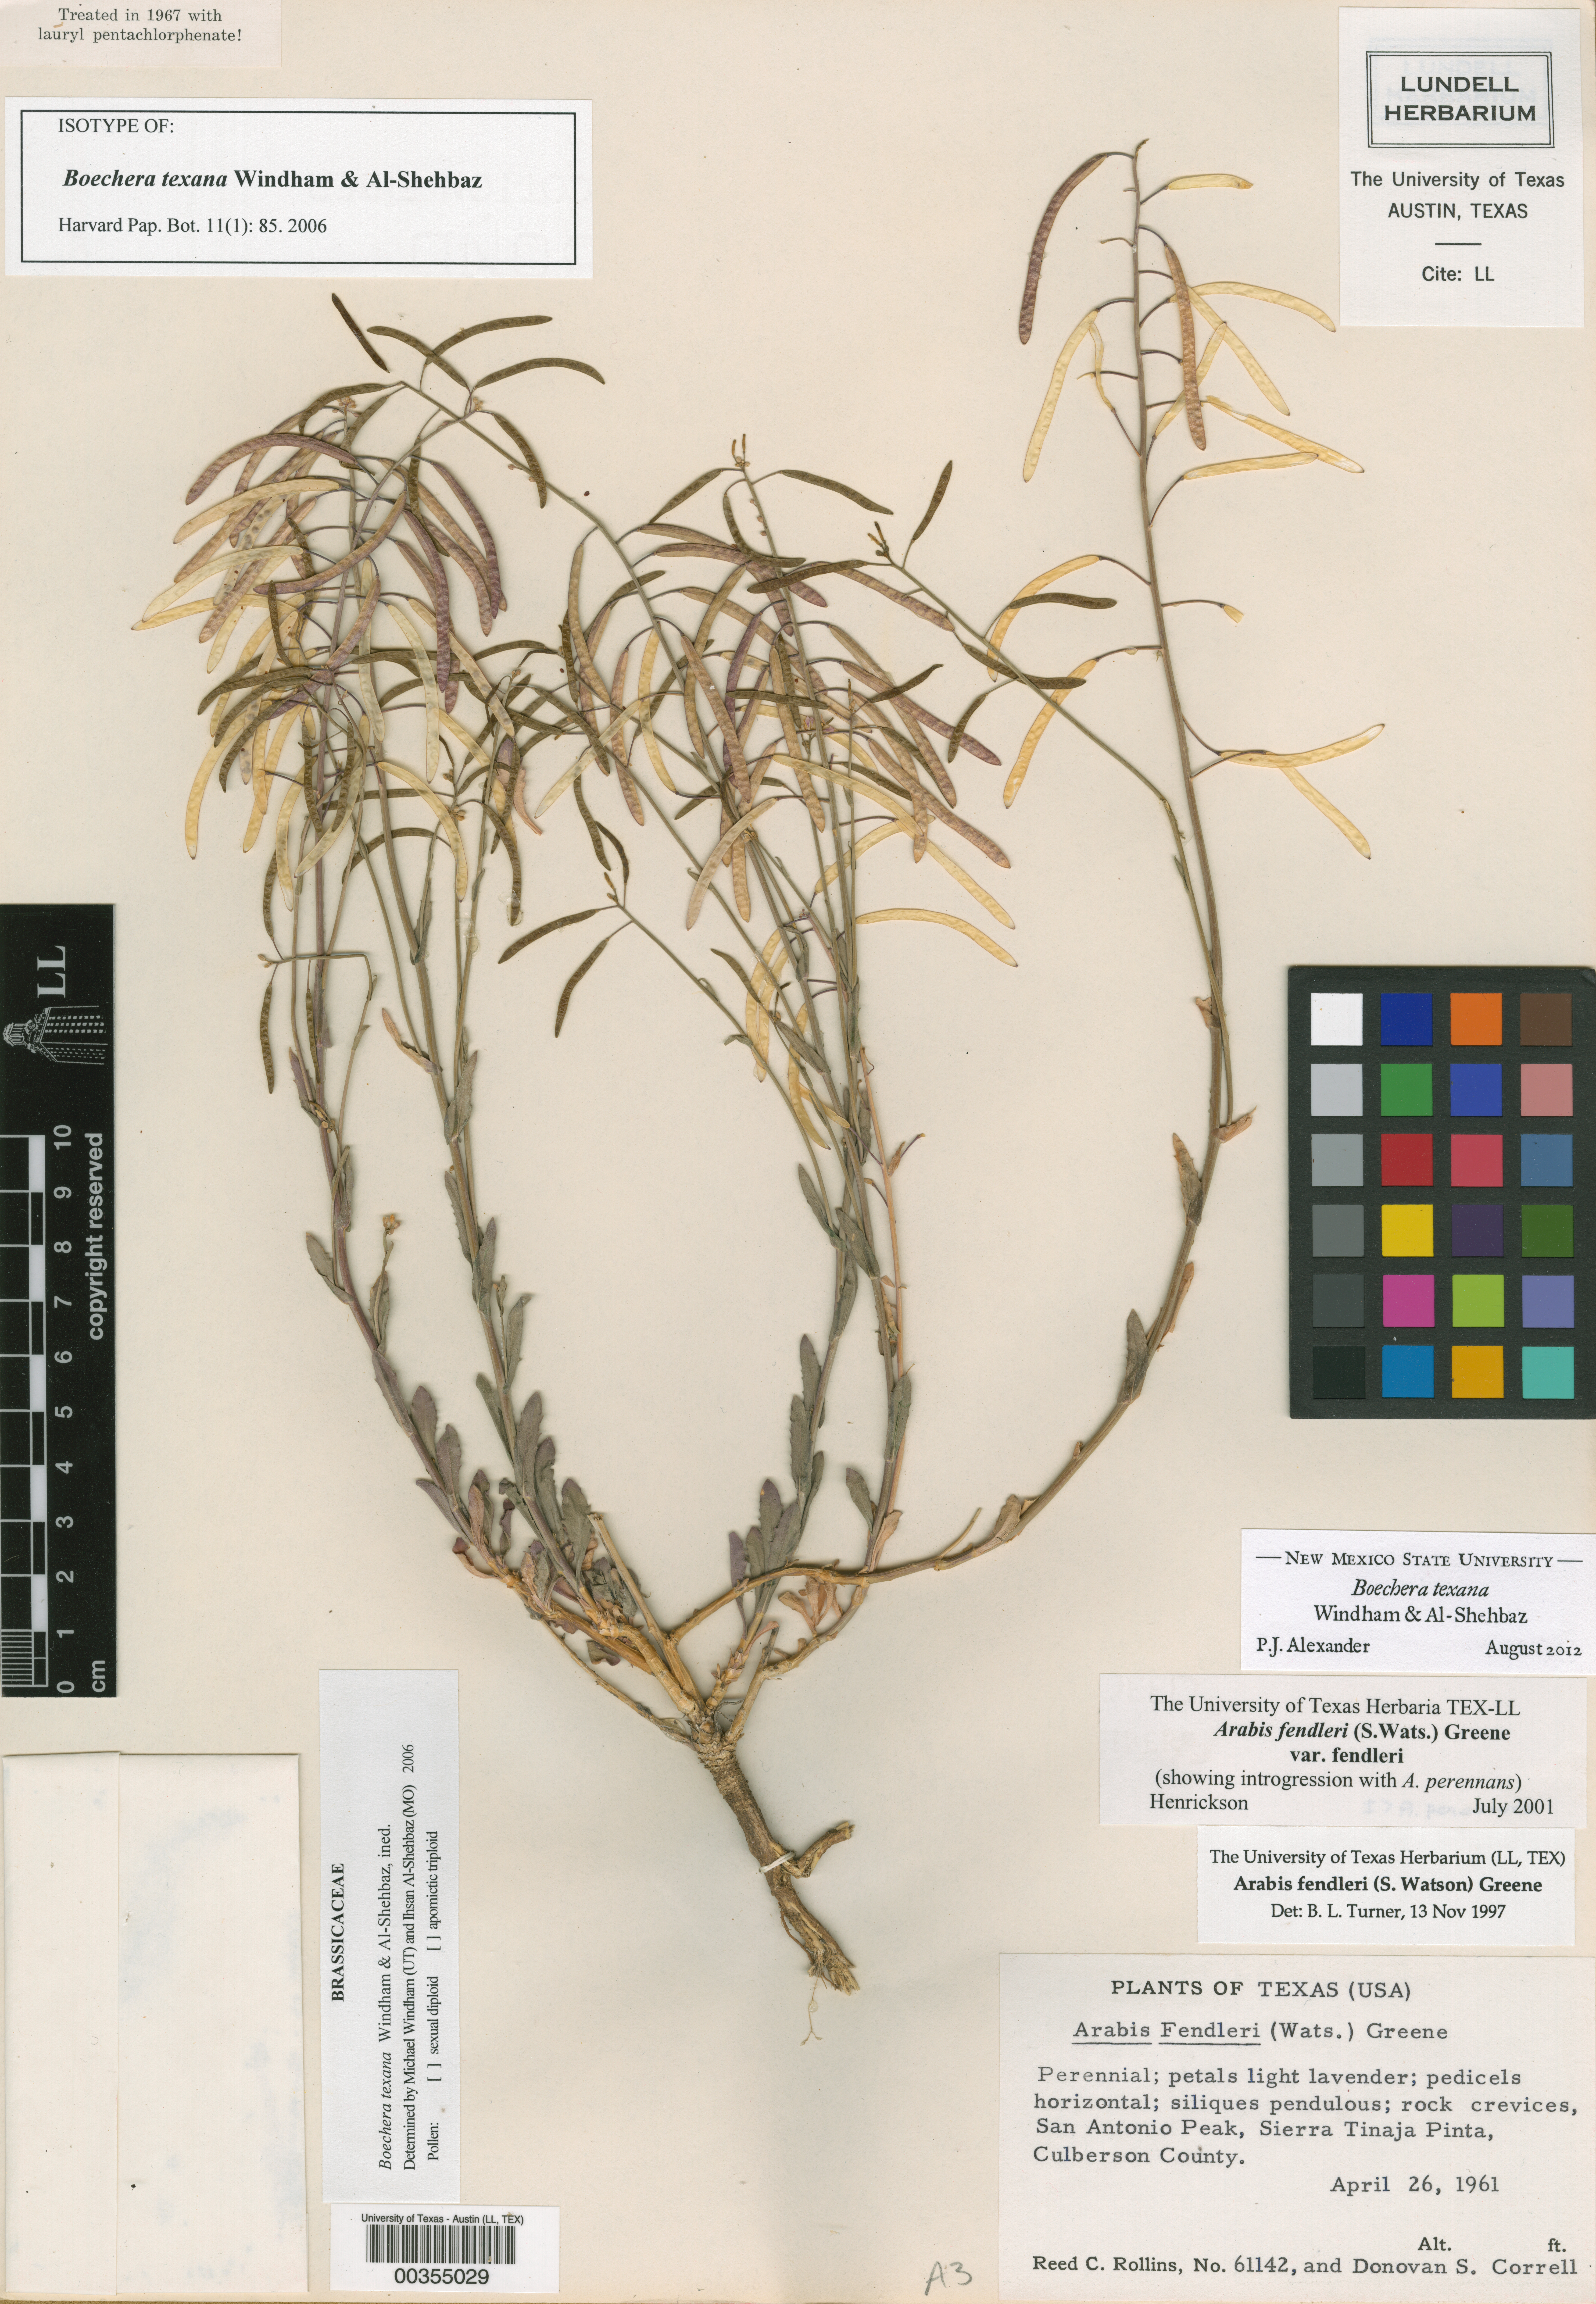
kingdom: Plantae
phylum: Tracheophyta
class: Magnoliopsida
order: Brassicales
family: Brassicaceae
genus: Boechera
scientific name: Boechera texana
